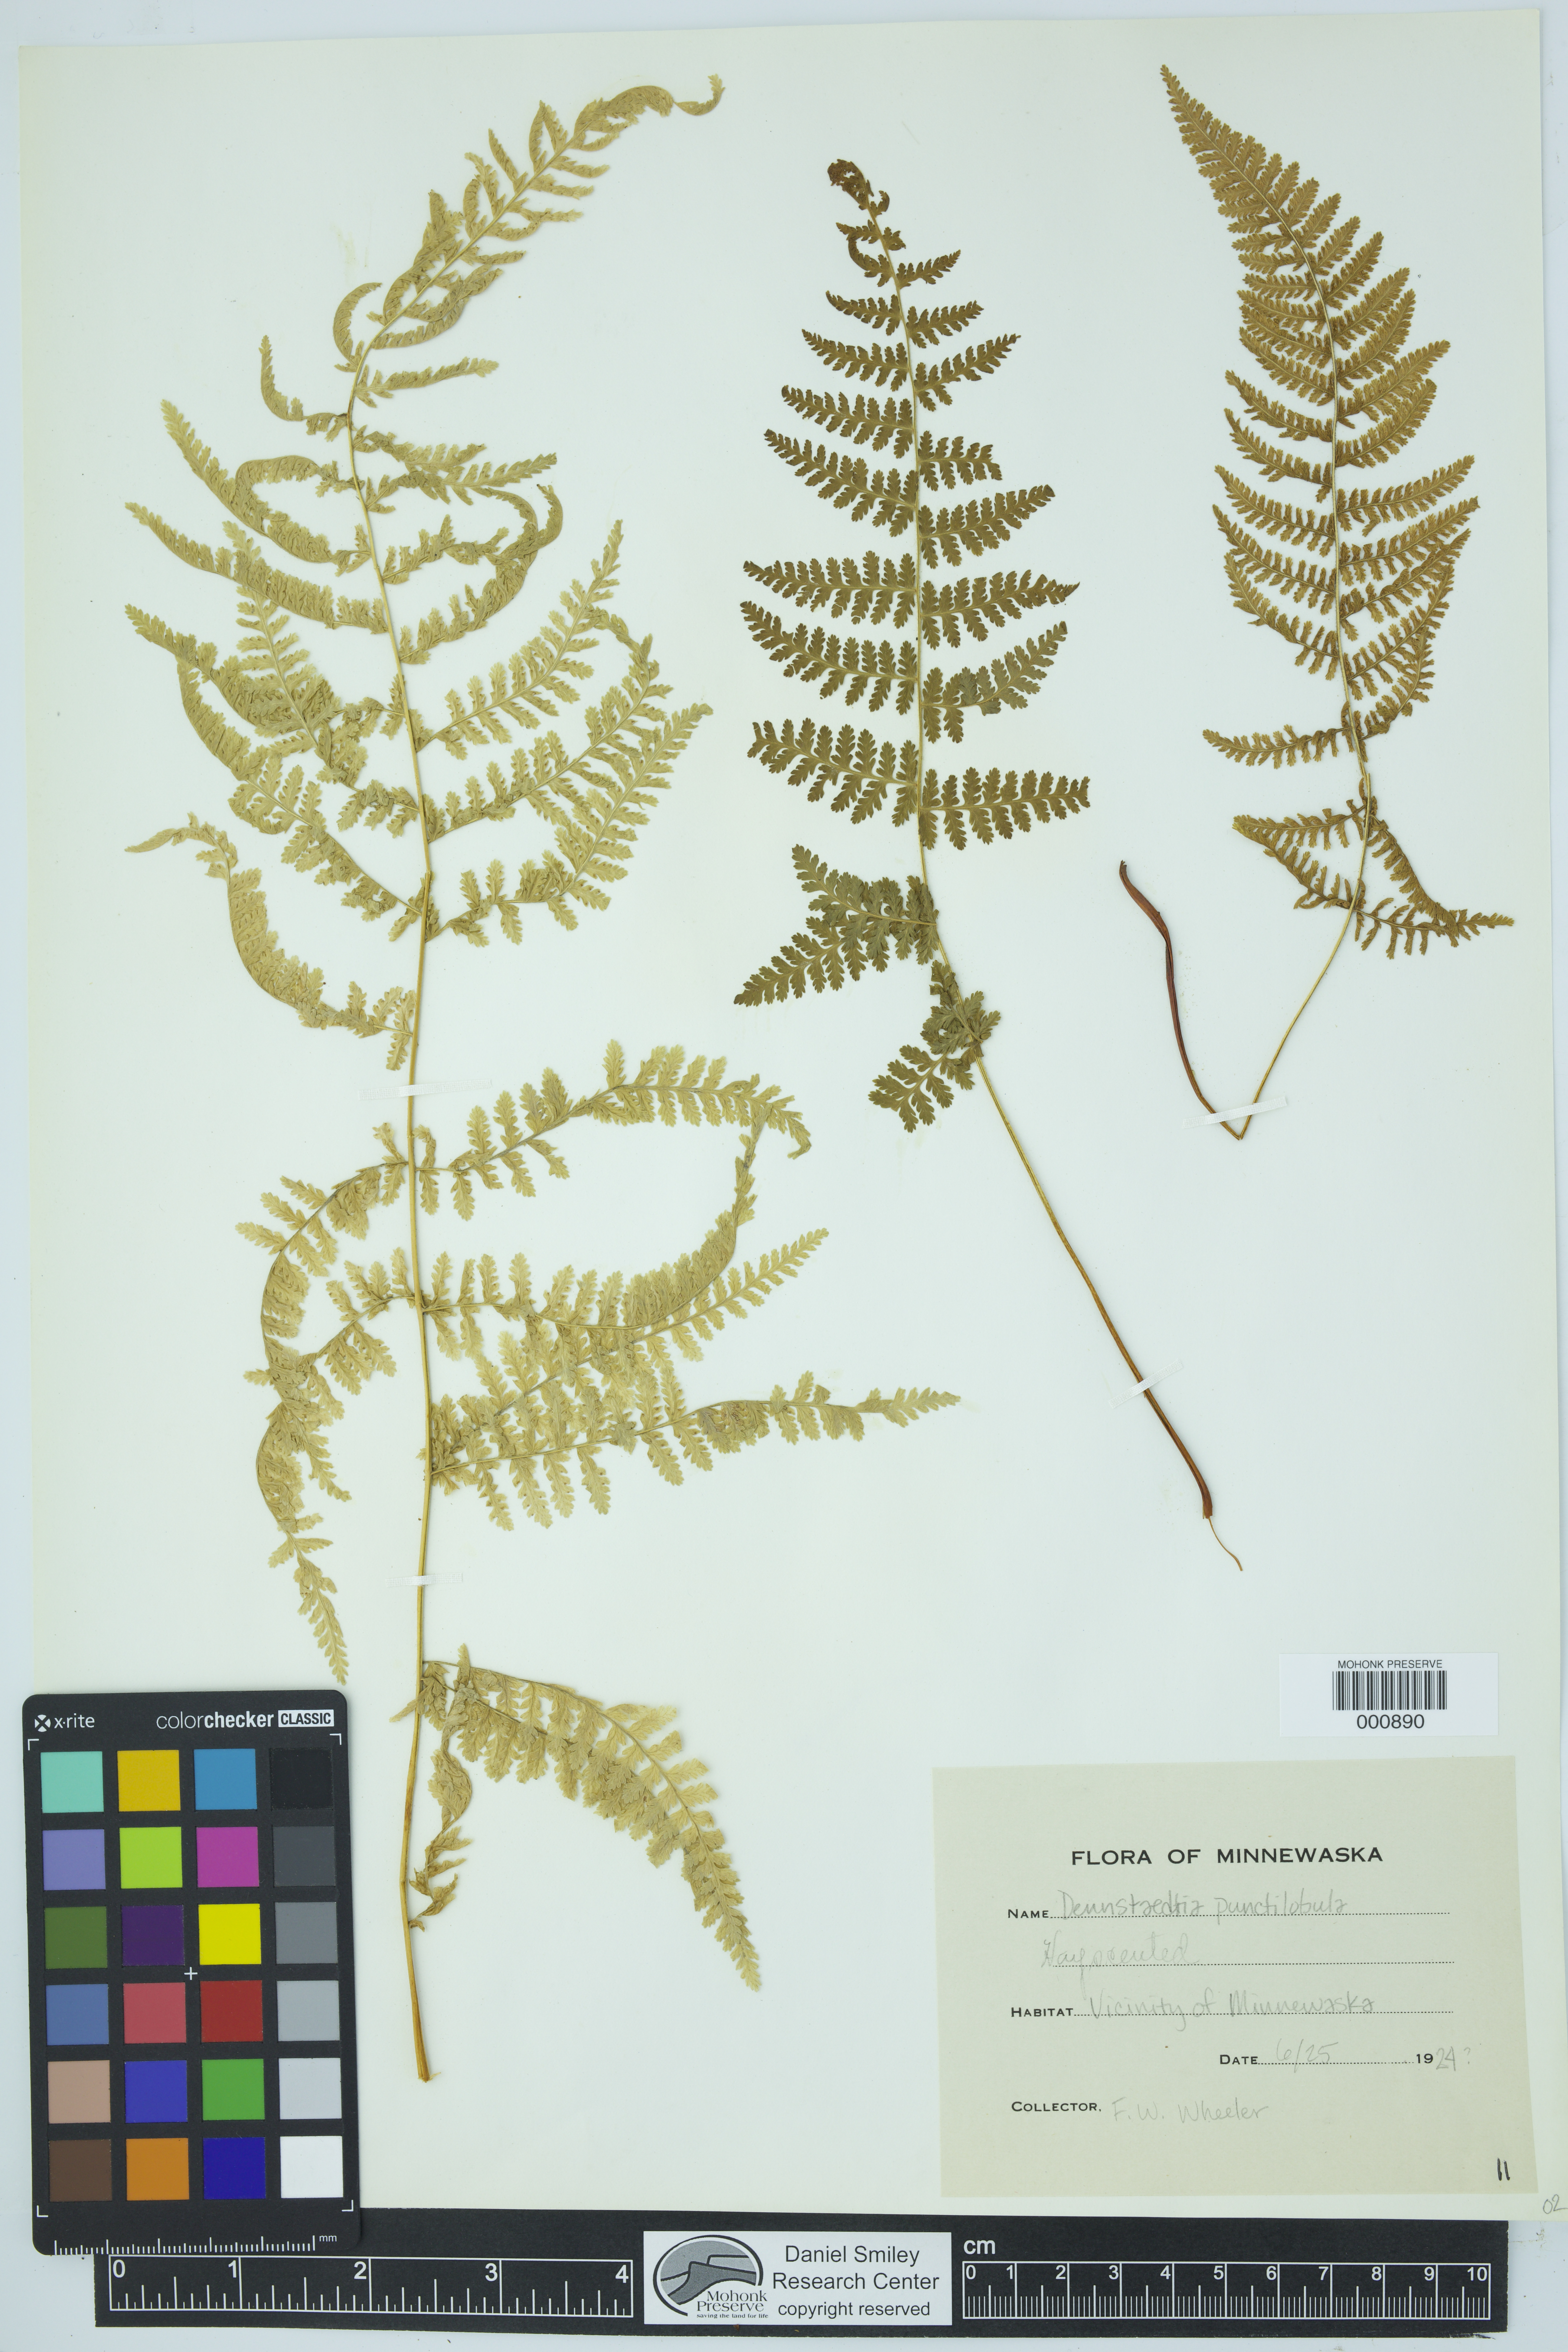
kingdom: Plantae
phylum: Tracheophyta
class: Polypodiopsida
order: Polypodiales
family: Dennstaedtiaceae
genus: Sitobolium
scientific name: Sitobolium punctilobum
